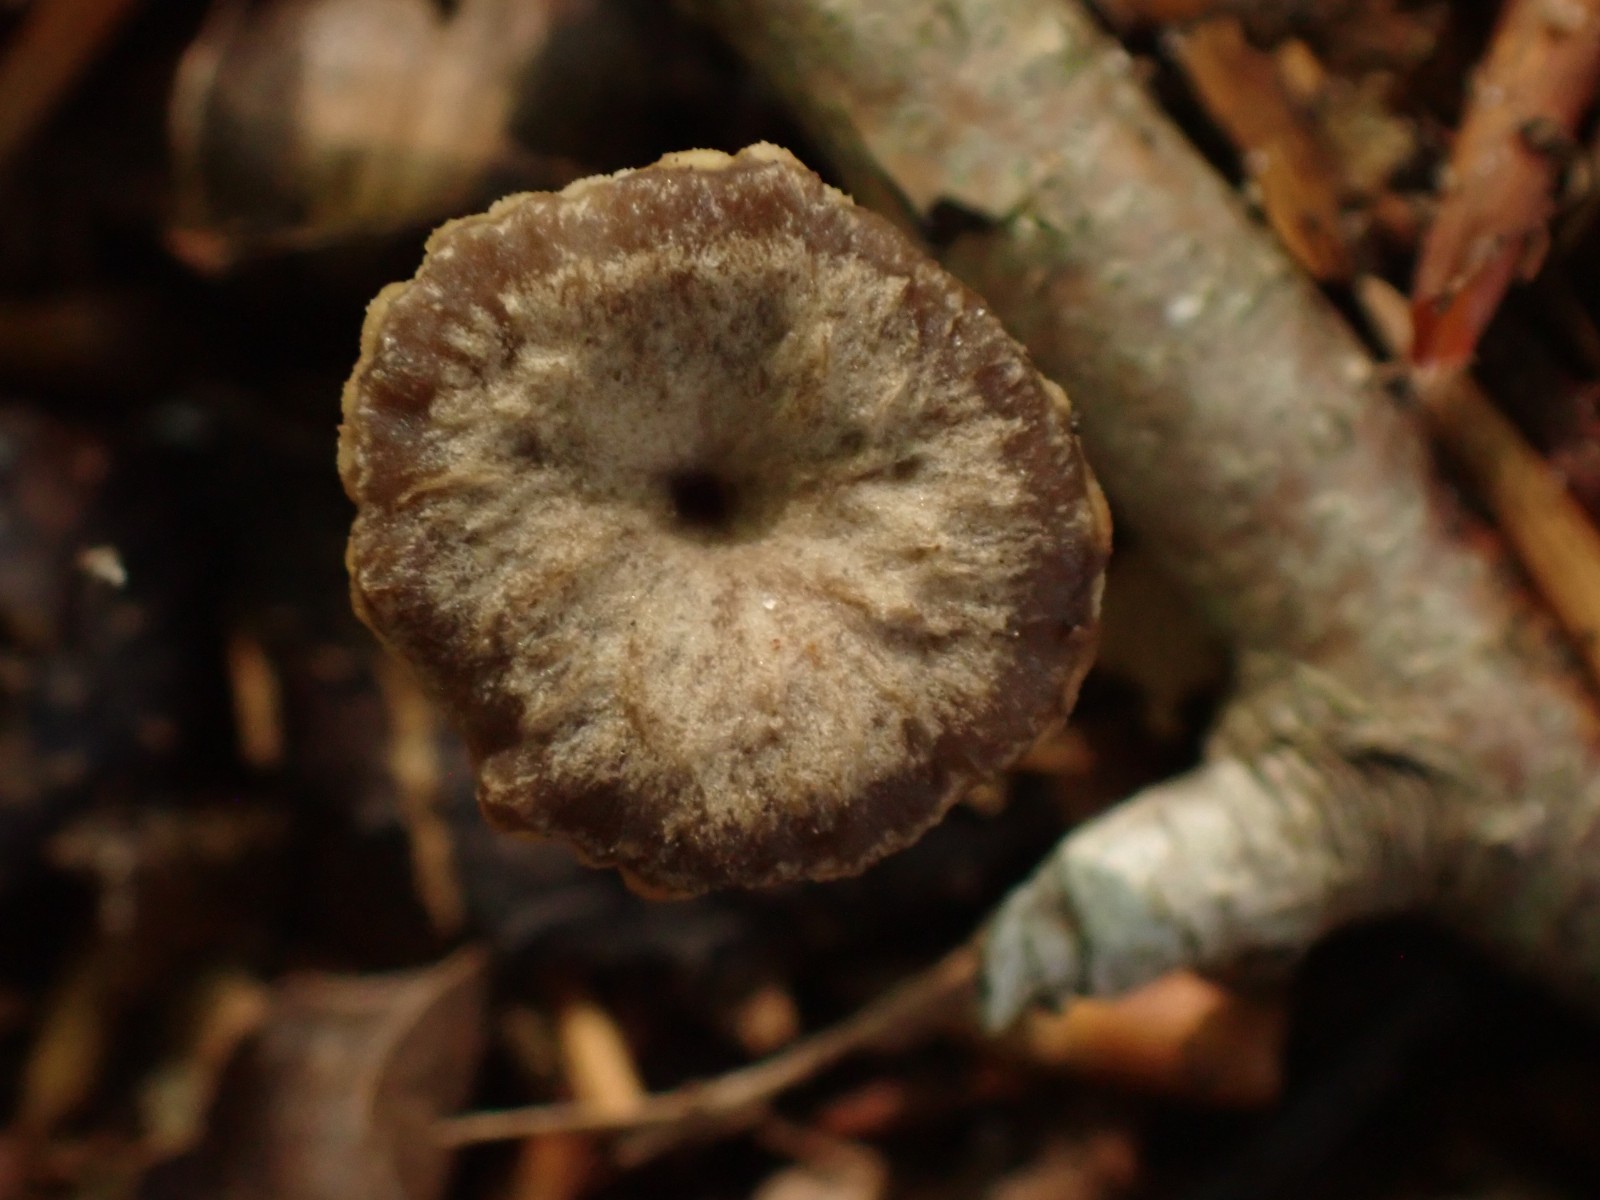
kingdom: Fungi
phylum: Basidiomycota
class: Agaricomycetes
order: Cantharellales
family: Hydnaceae
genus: Craterellus
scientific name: Craterellus undulatus
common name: liden kantarel
